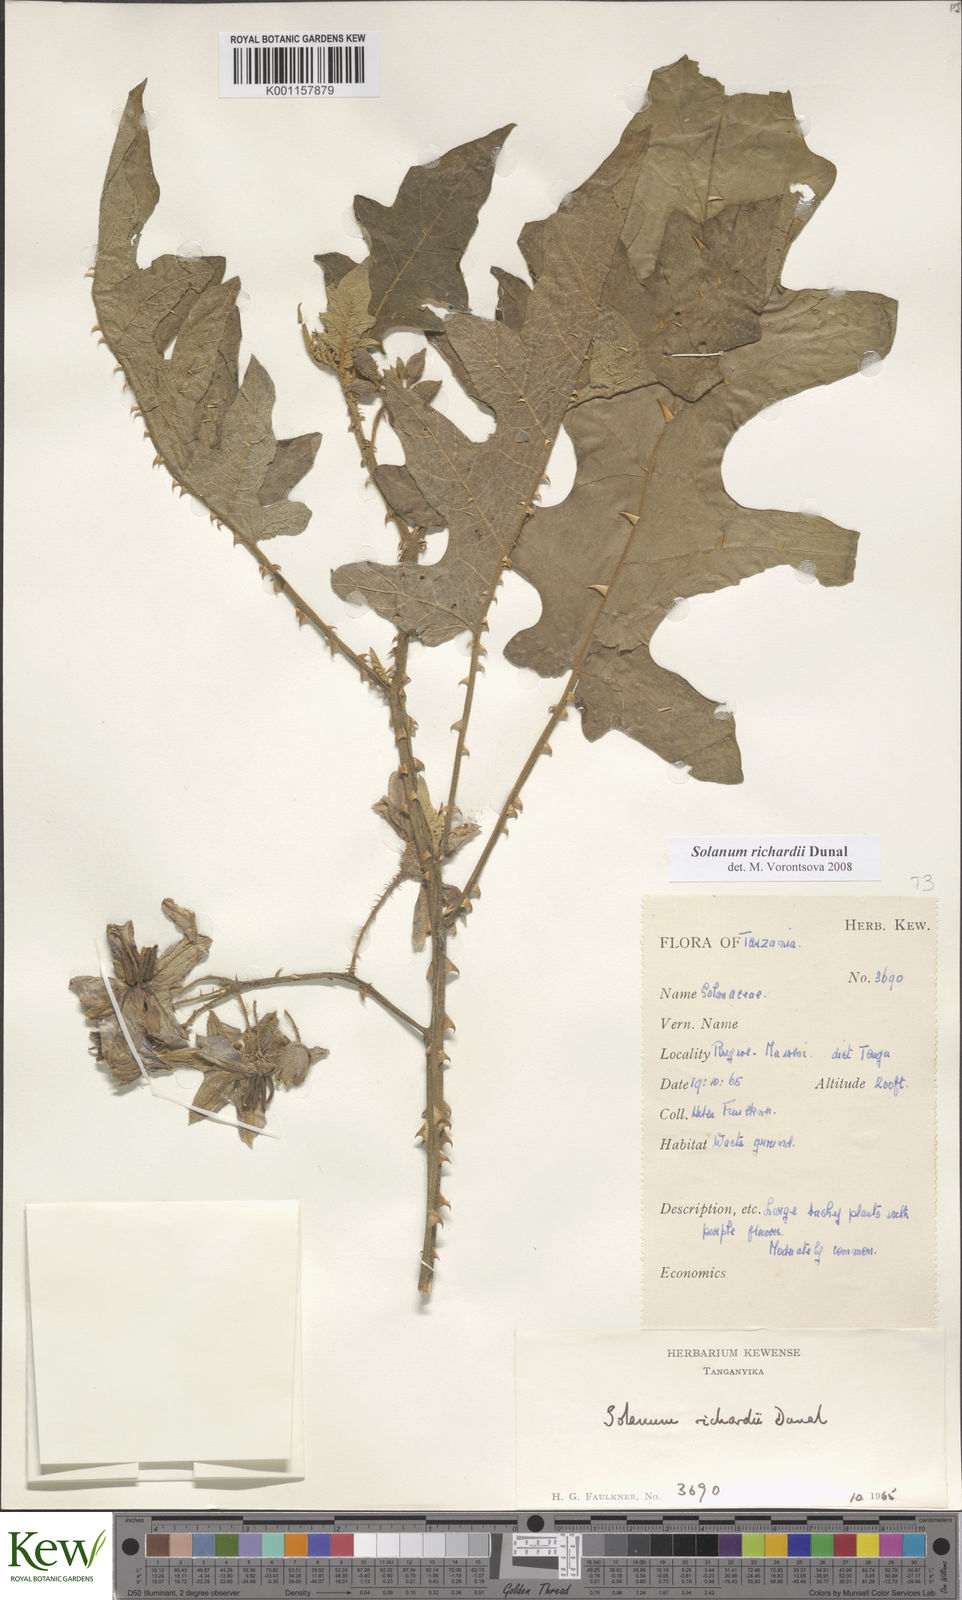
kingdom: Plantae
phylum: Tracheophyta
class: Magnoliopsida
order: Solanales
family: Solanaceae
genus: Solanum
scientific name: Solanum richardii
